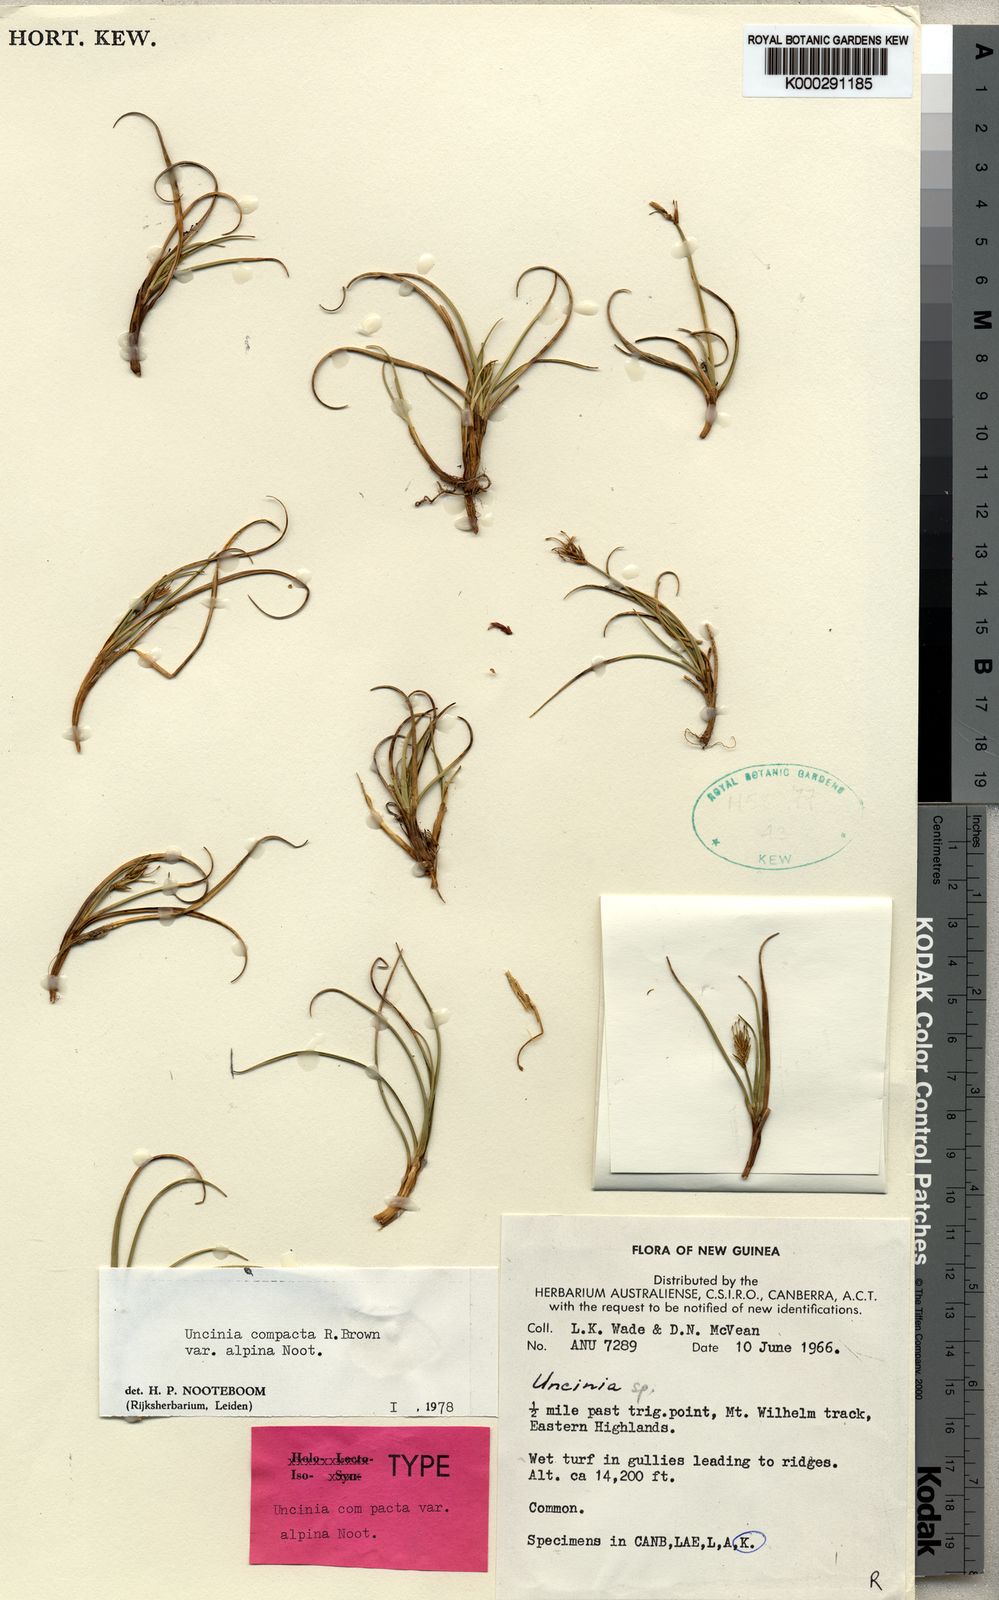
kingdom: Plantae
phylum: Tracheophyta
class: Liliopsida
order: Poales
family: Cyperaceae
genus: Carex
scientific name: Carex papualpina
